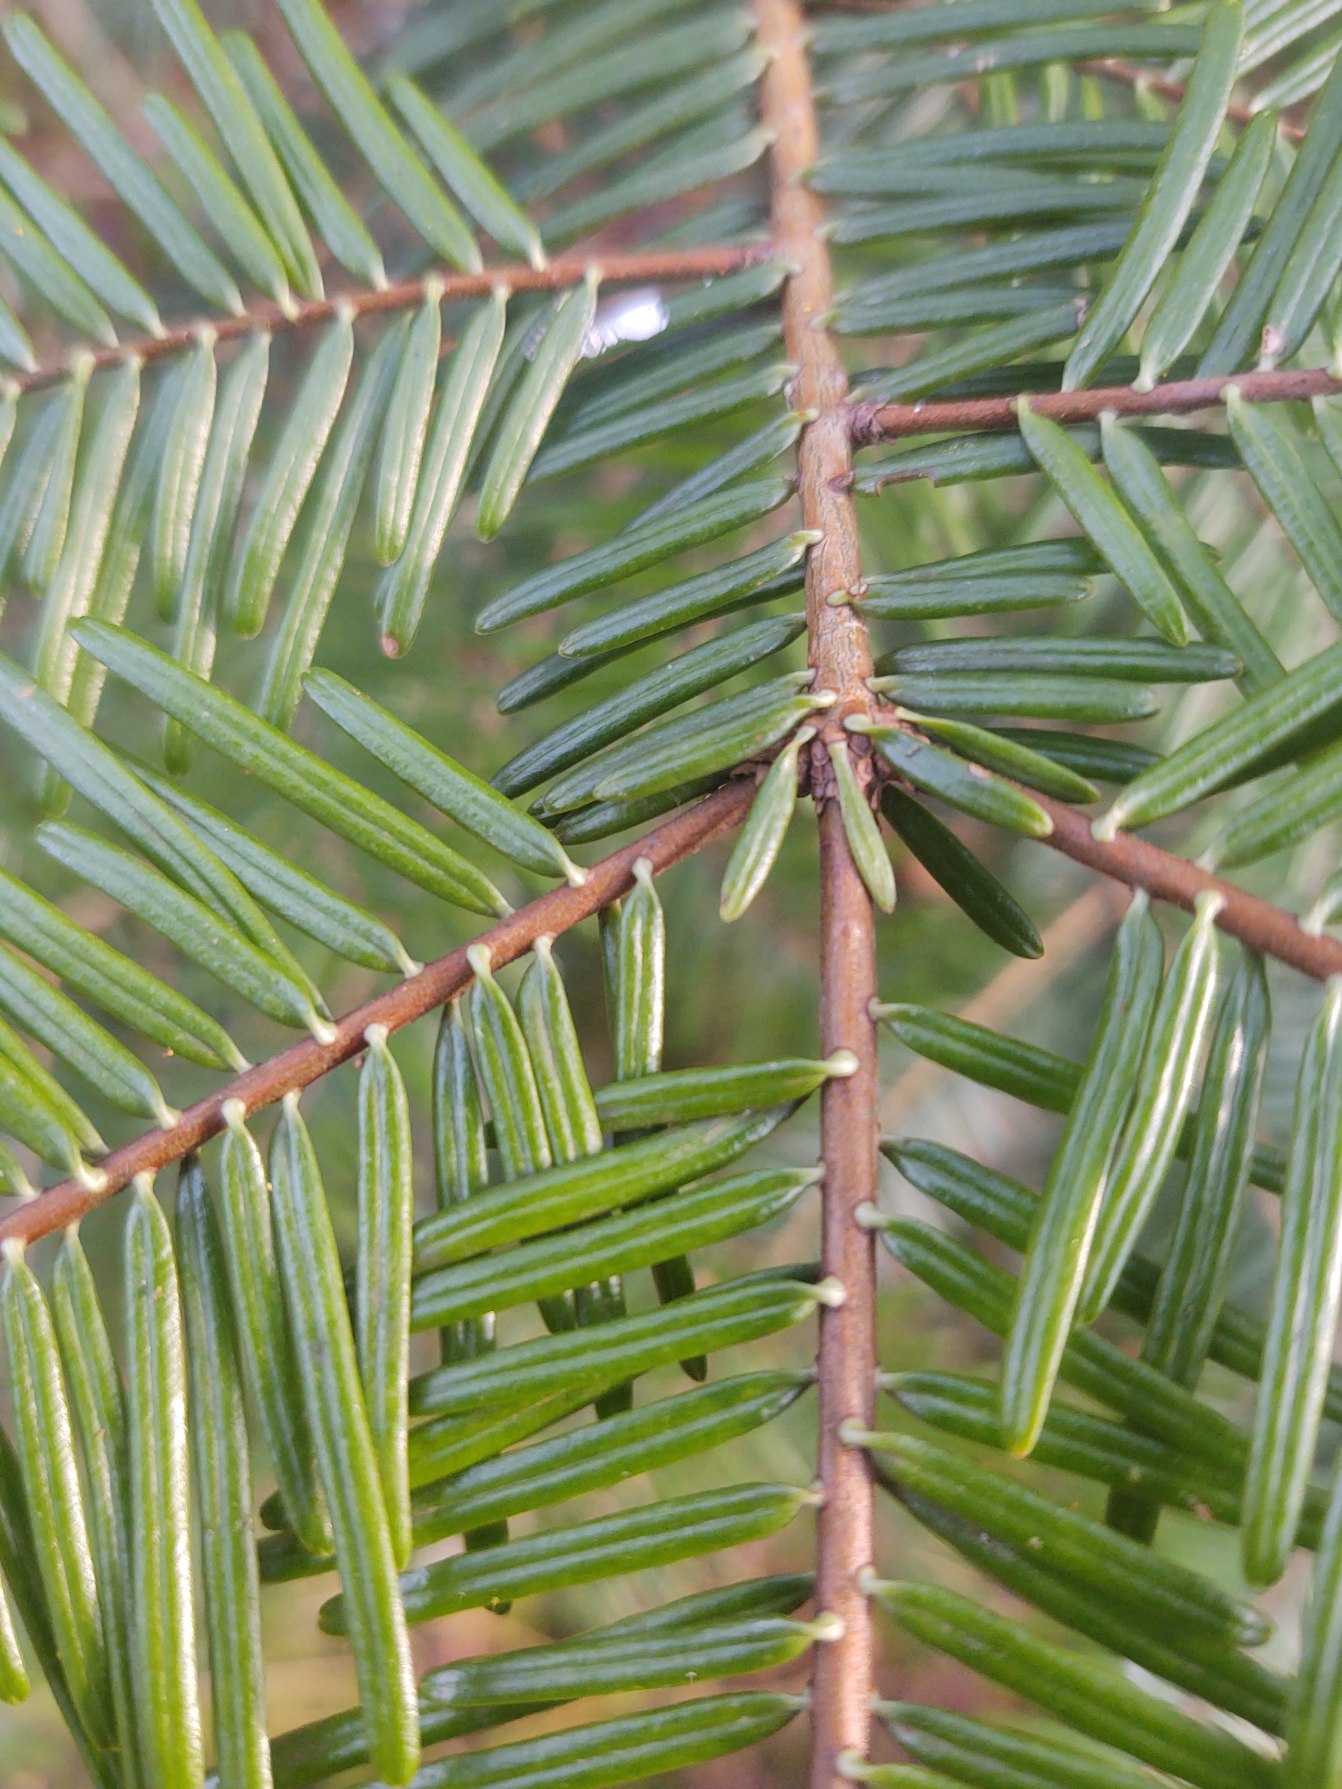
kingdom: Plantae
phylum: Tracheophyta
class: Pinopsida
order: Pinales
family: Pinaceae
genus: Abies
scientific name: Abies grandis
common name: Kæmpegran
